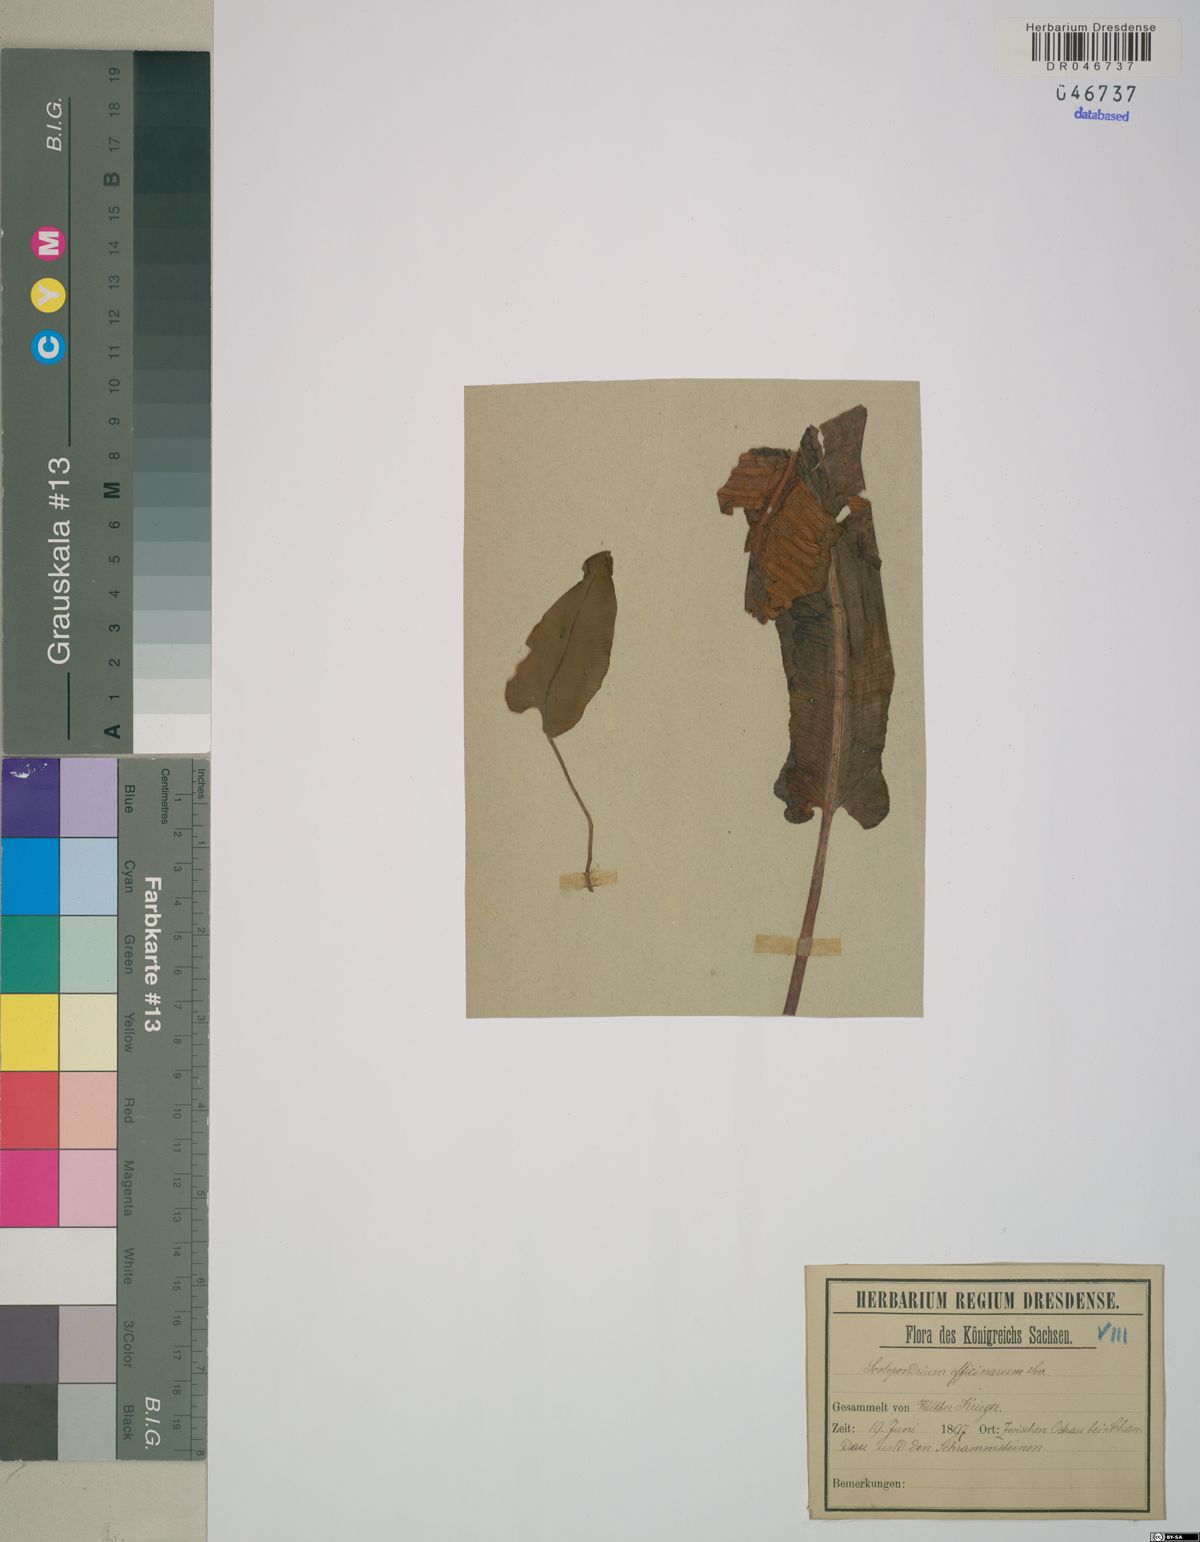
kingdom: Plantae
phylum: Tracheophyta
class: Polypodiopsida
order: Polypodiales
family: Aspleniaceae
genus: Asplenium
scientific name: Asplenium scolopendrium
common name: Hart's-tongue fern
